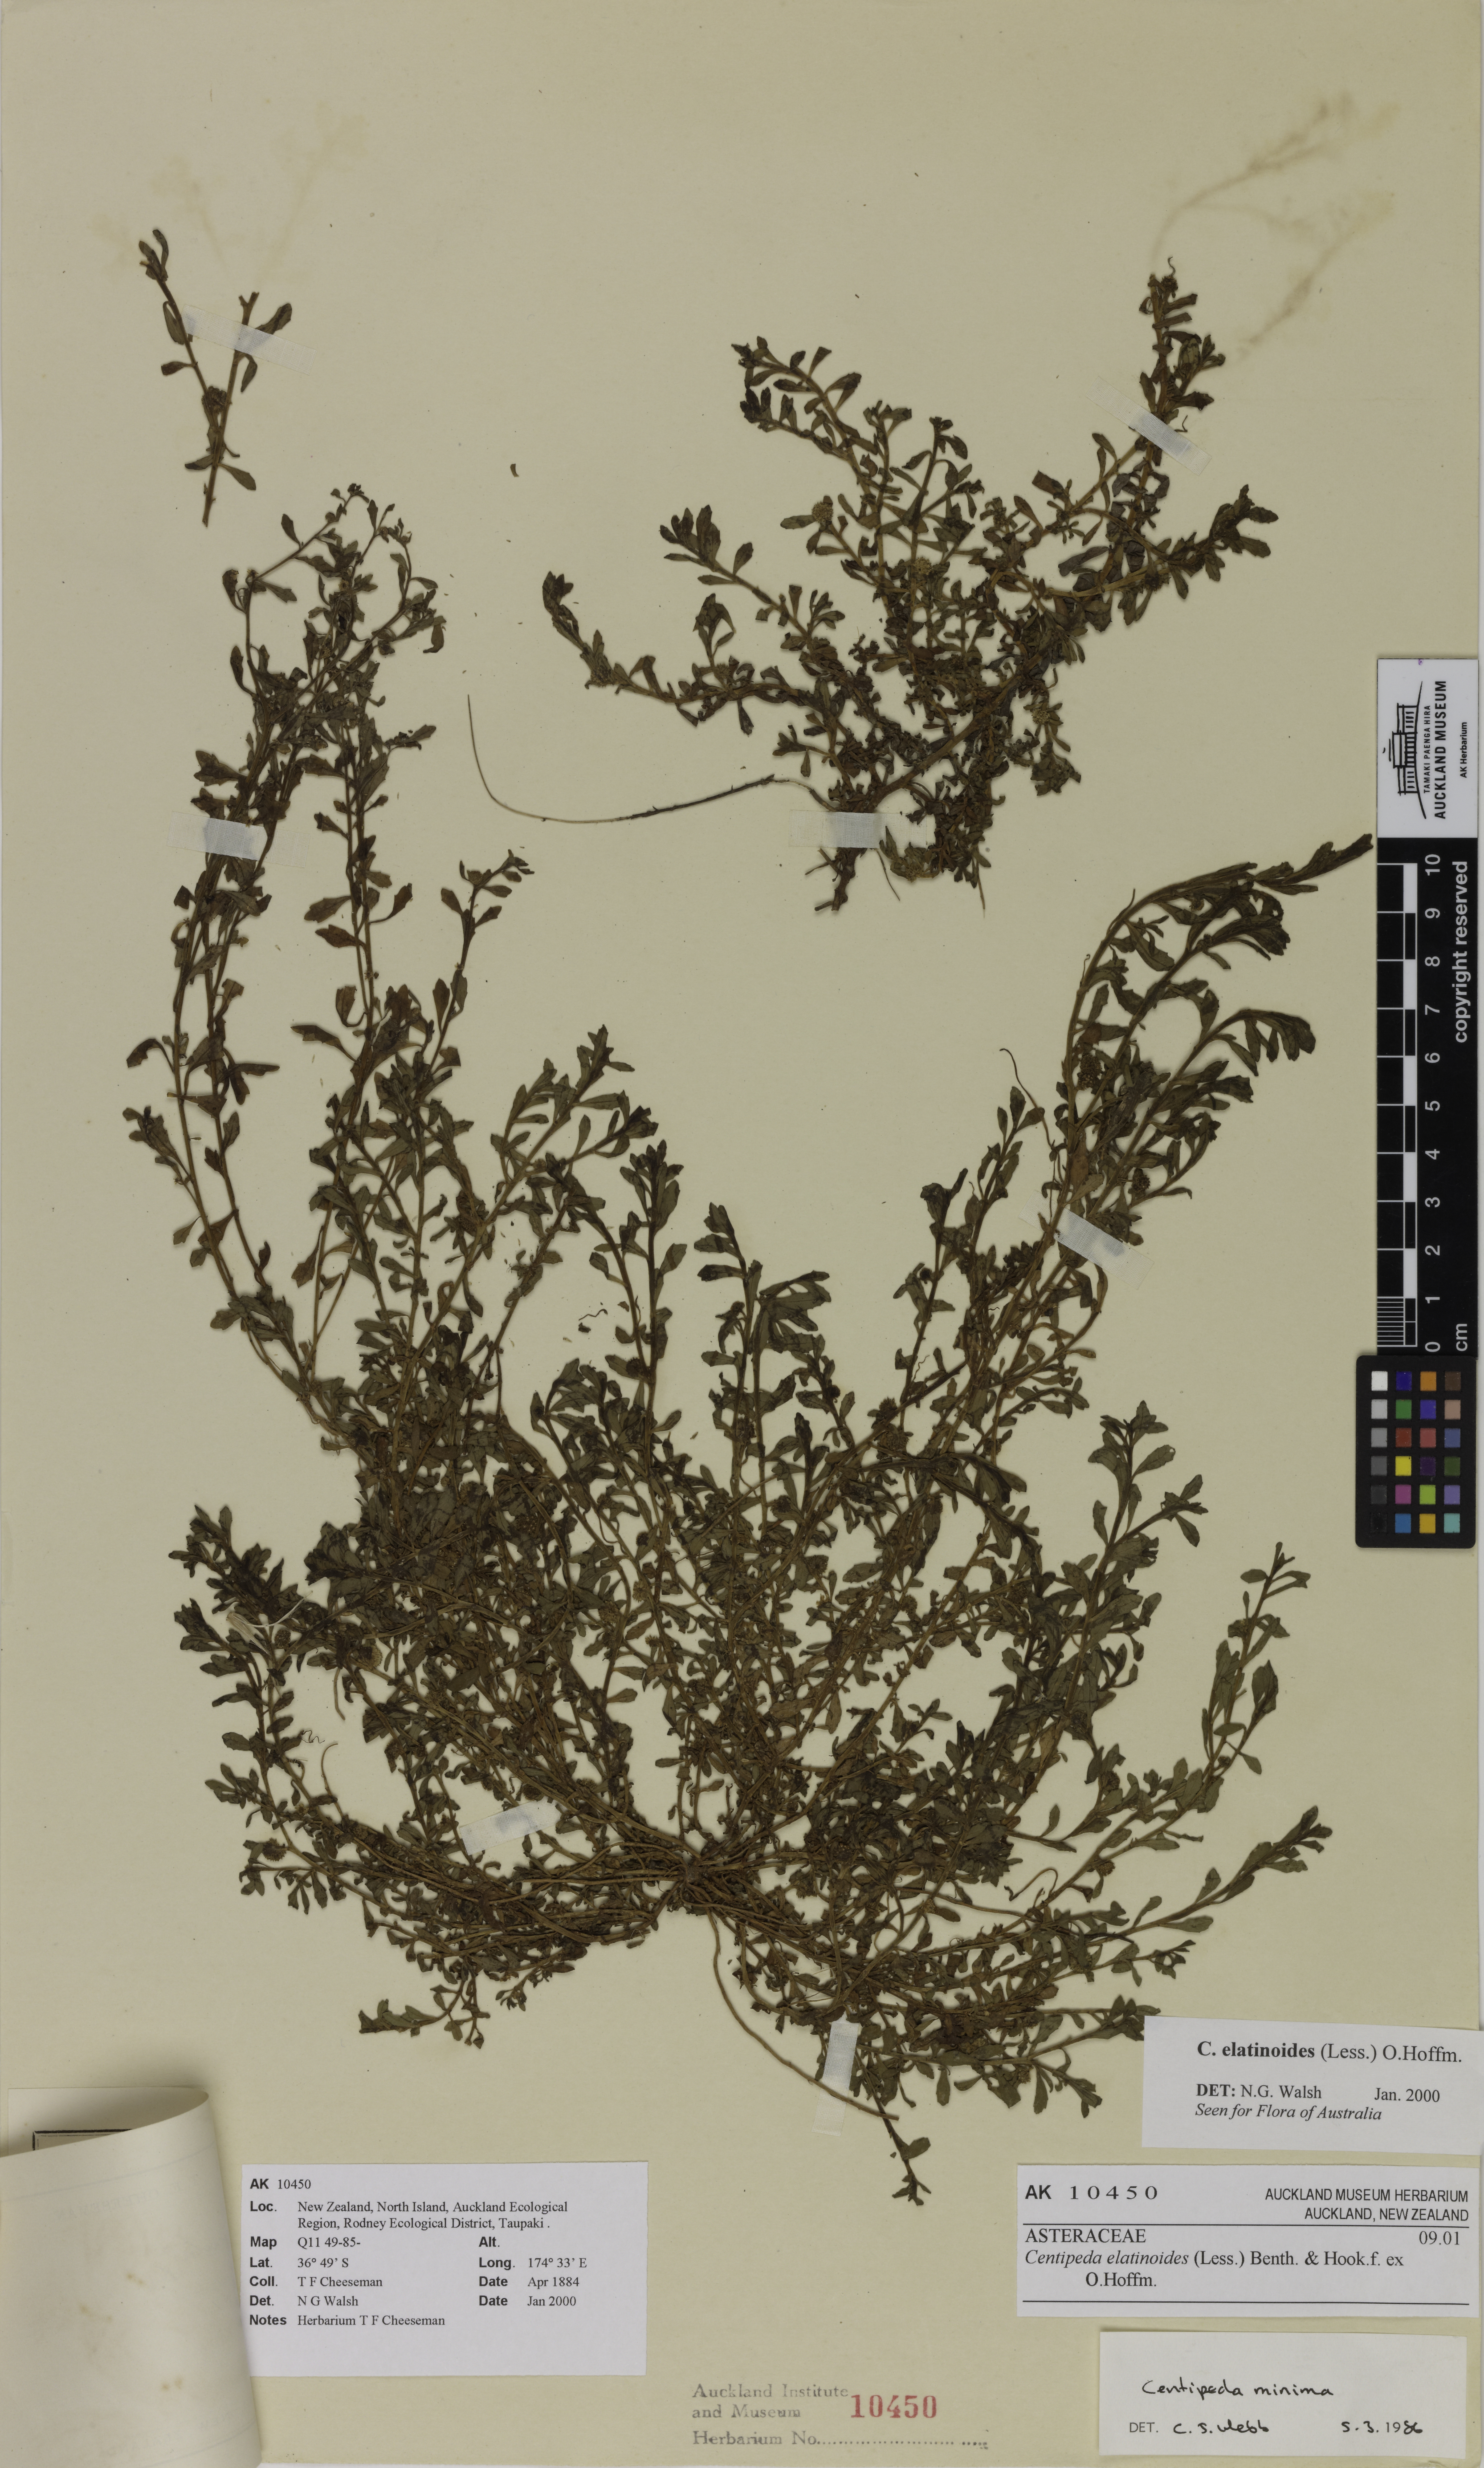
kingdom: Plantae
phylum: Tracheophyta
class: Magnoliopsida
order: Asterales
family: Asteraceae
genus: Centipeda
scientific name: Centipeda elatinoides
